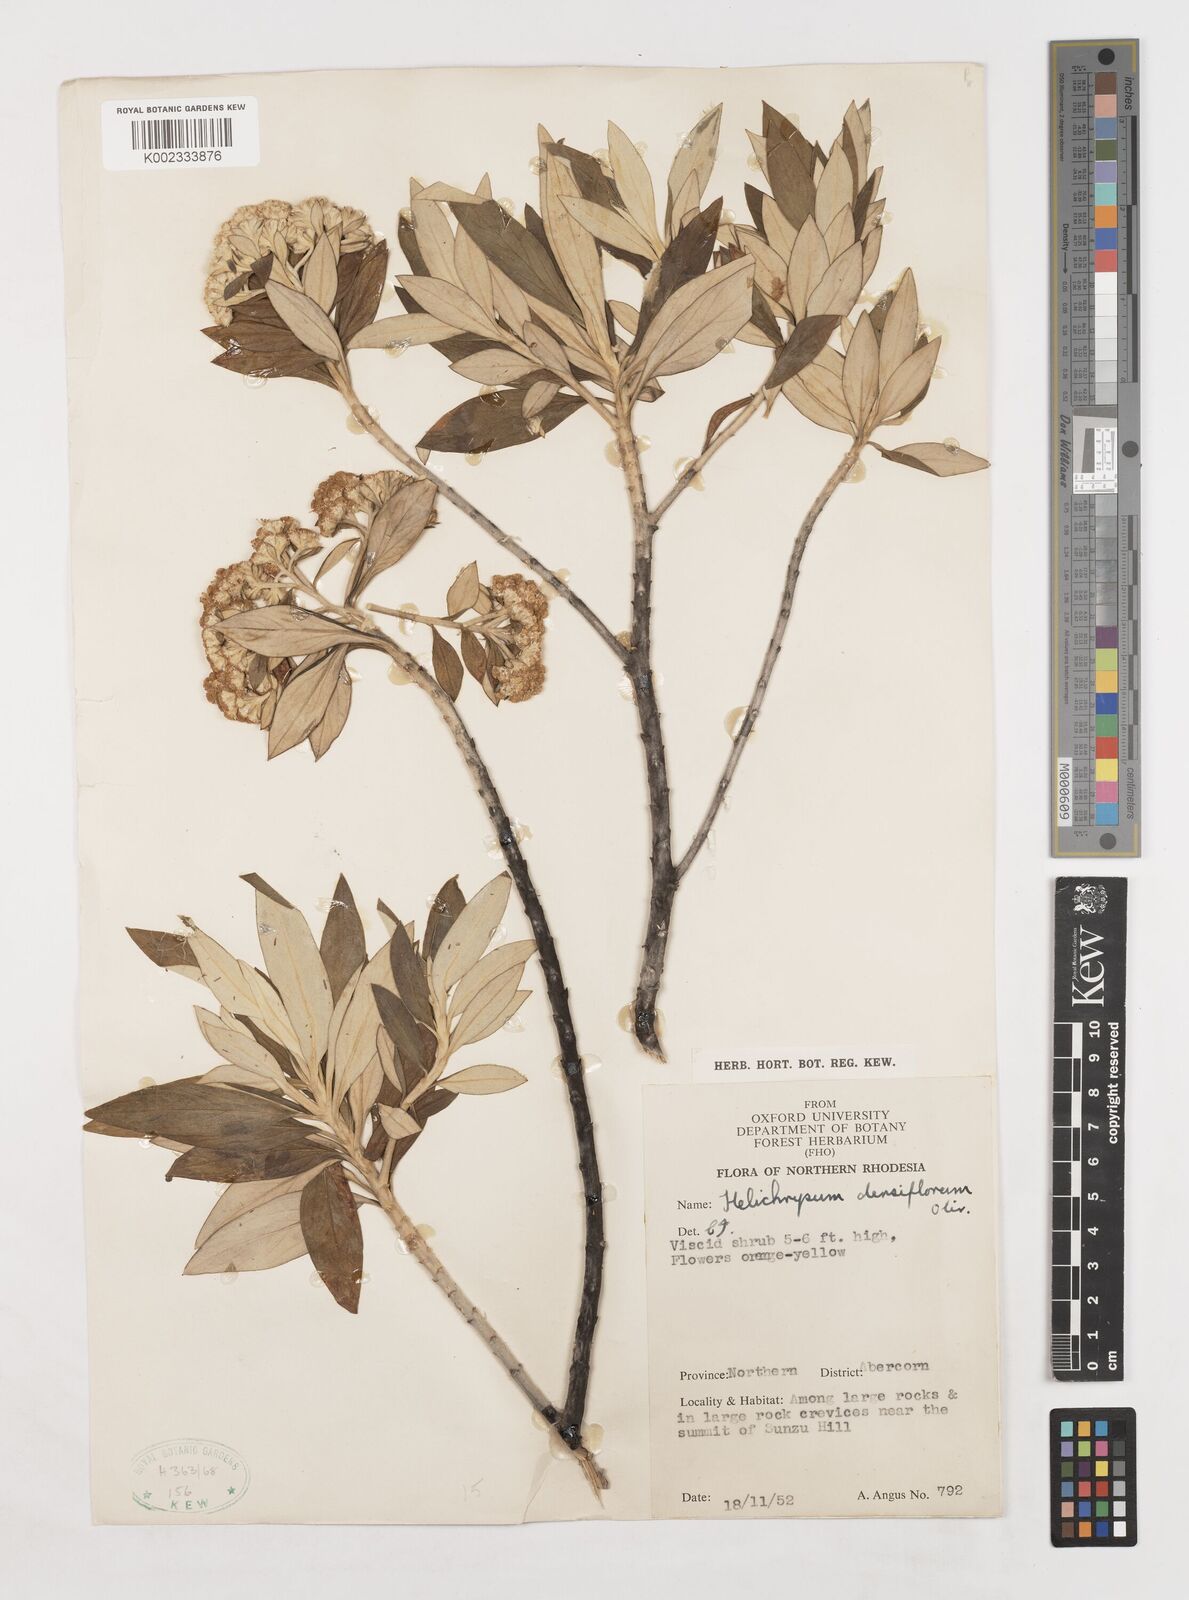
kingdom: Plantae
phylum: Tracheophyta
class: Magnoliopsida
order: Asterales
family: Asteraceae
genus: Helichrysum
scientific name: Helichrysum densiflorum
